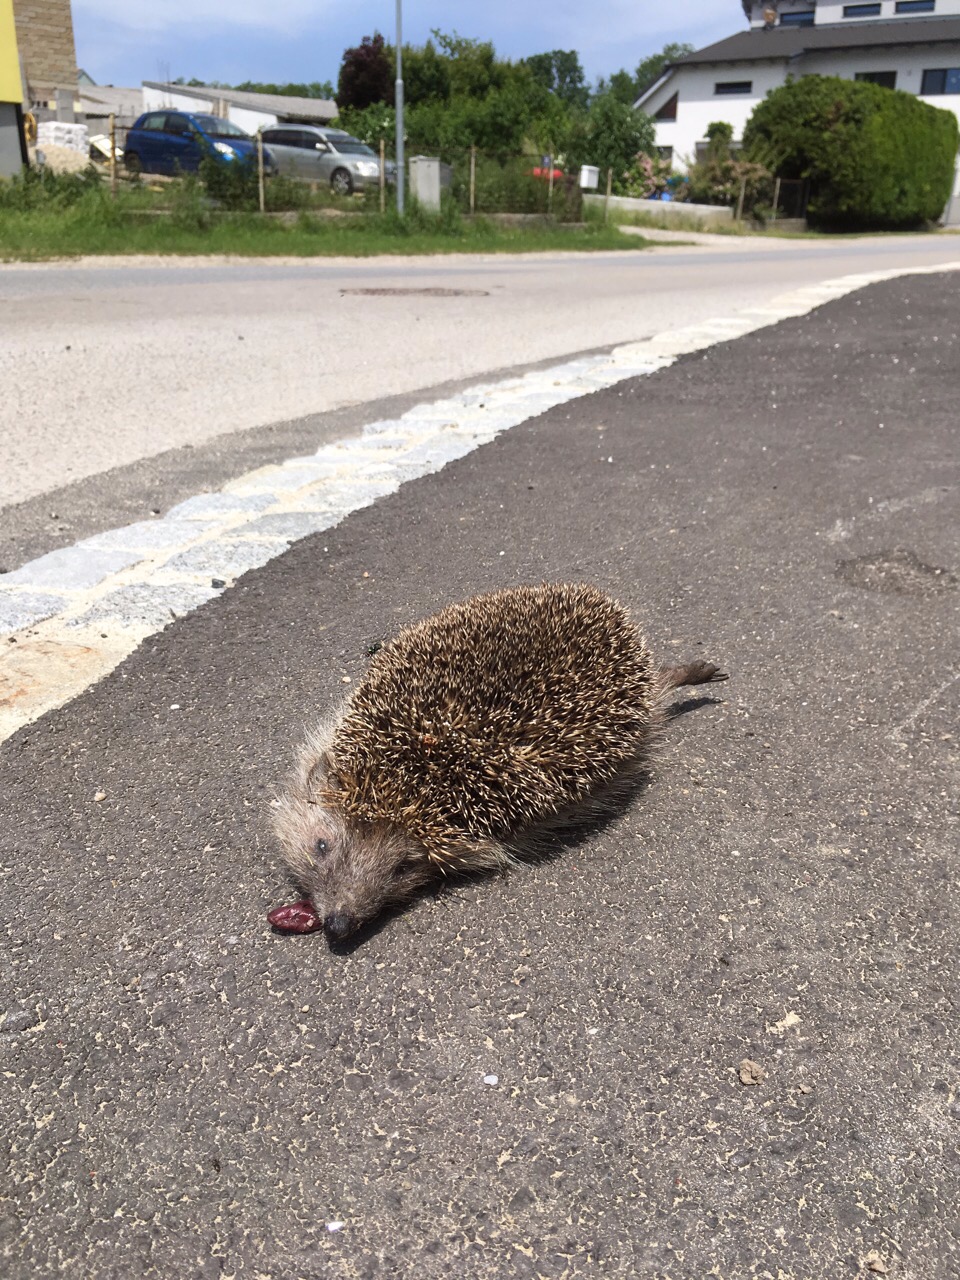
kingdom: Animalia
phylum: Chordata
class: Mammalia
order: Erinaceomorpha
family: Erinaceidae
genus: Erinaceus
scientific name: Erinaceus
